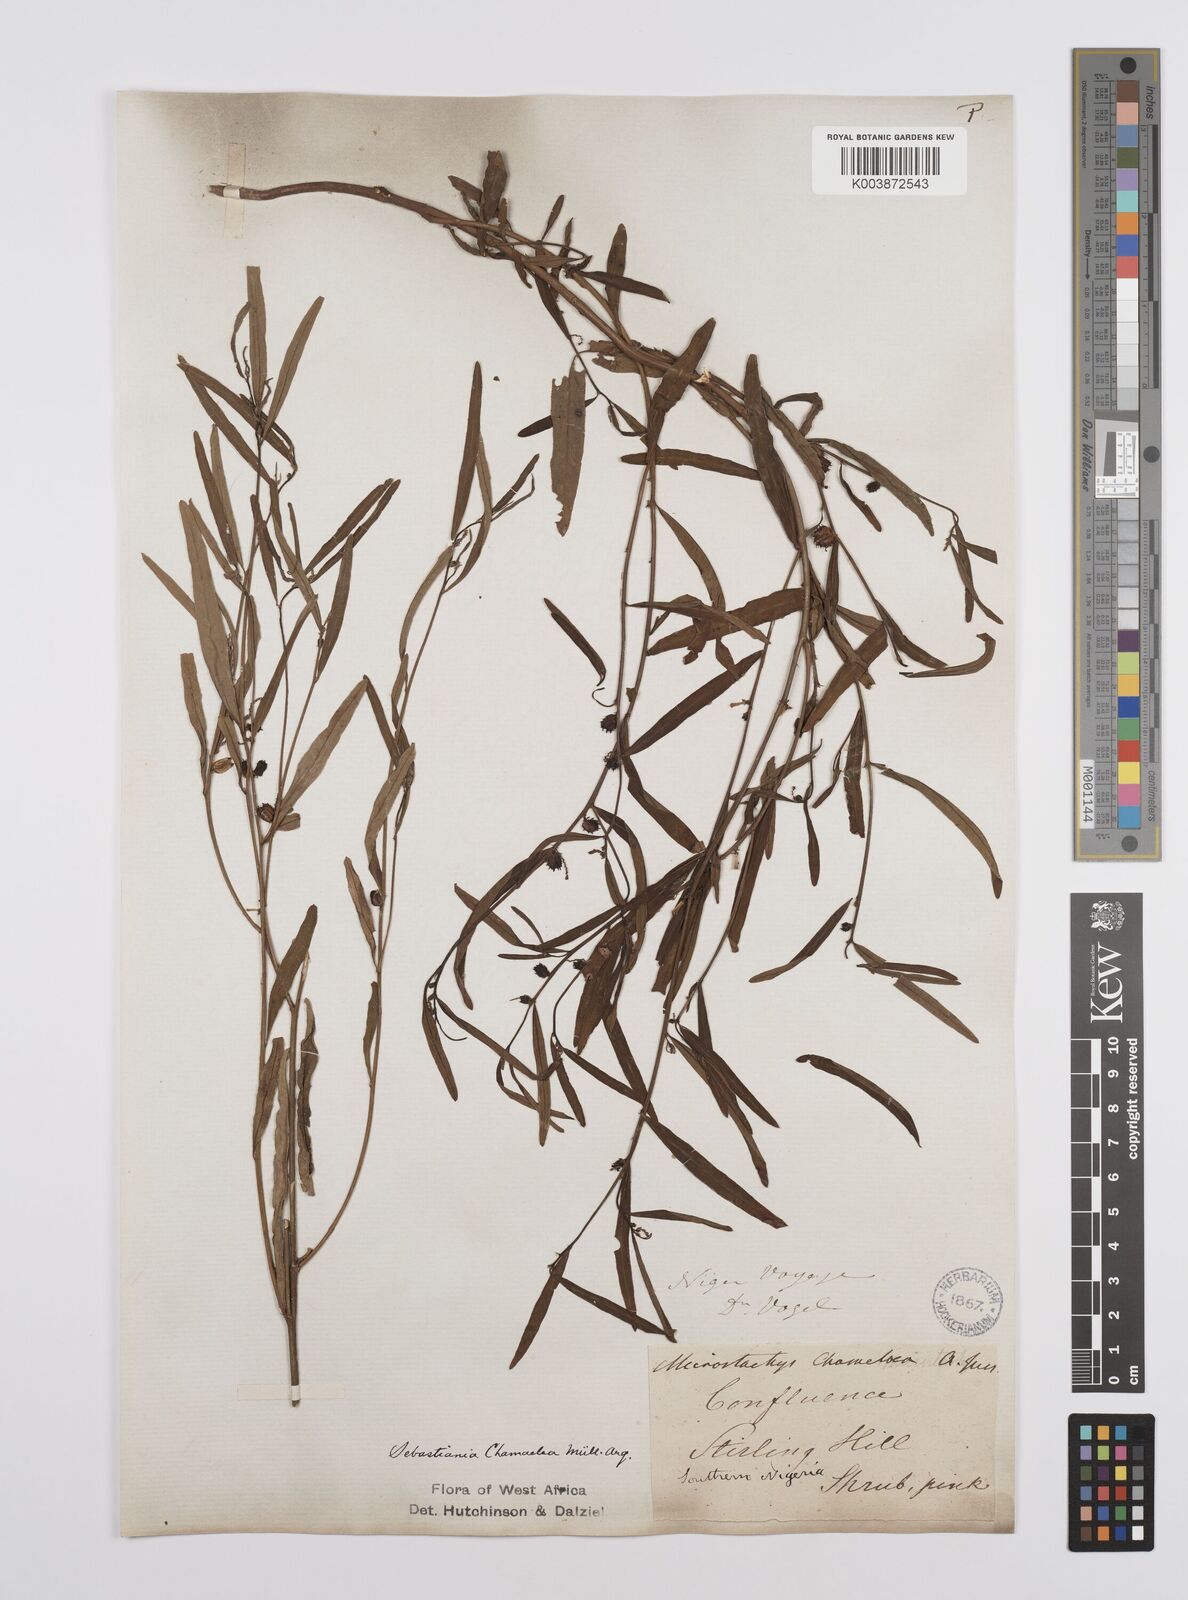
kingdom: Plantae
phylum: Tracheophyta
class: Magnoliopsida
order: Malpighiales
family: Euphorbiaceae
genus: Microstachys
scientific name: Microstachys chamaelea
